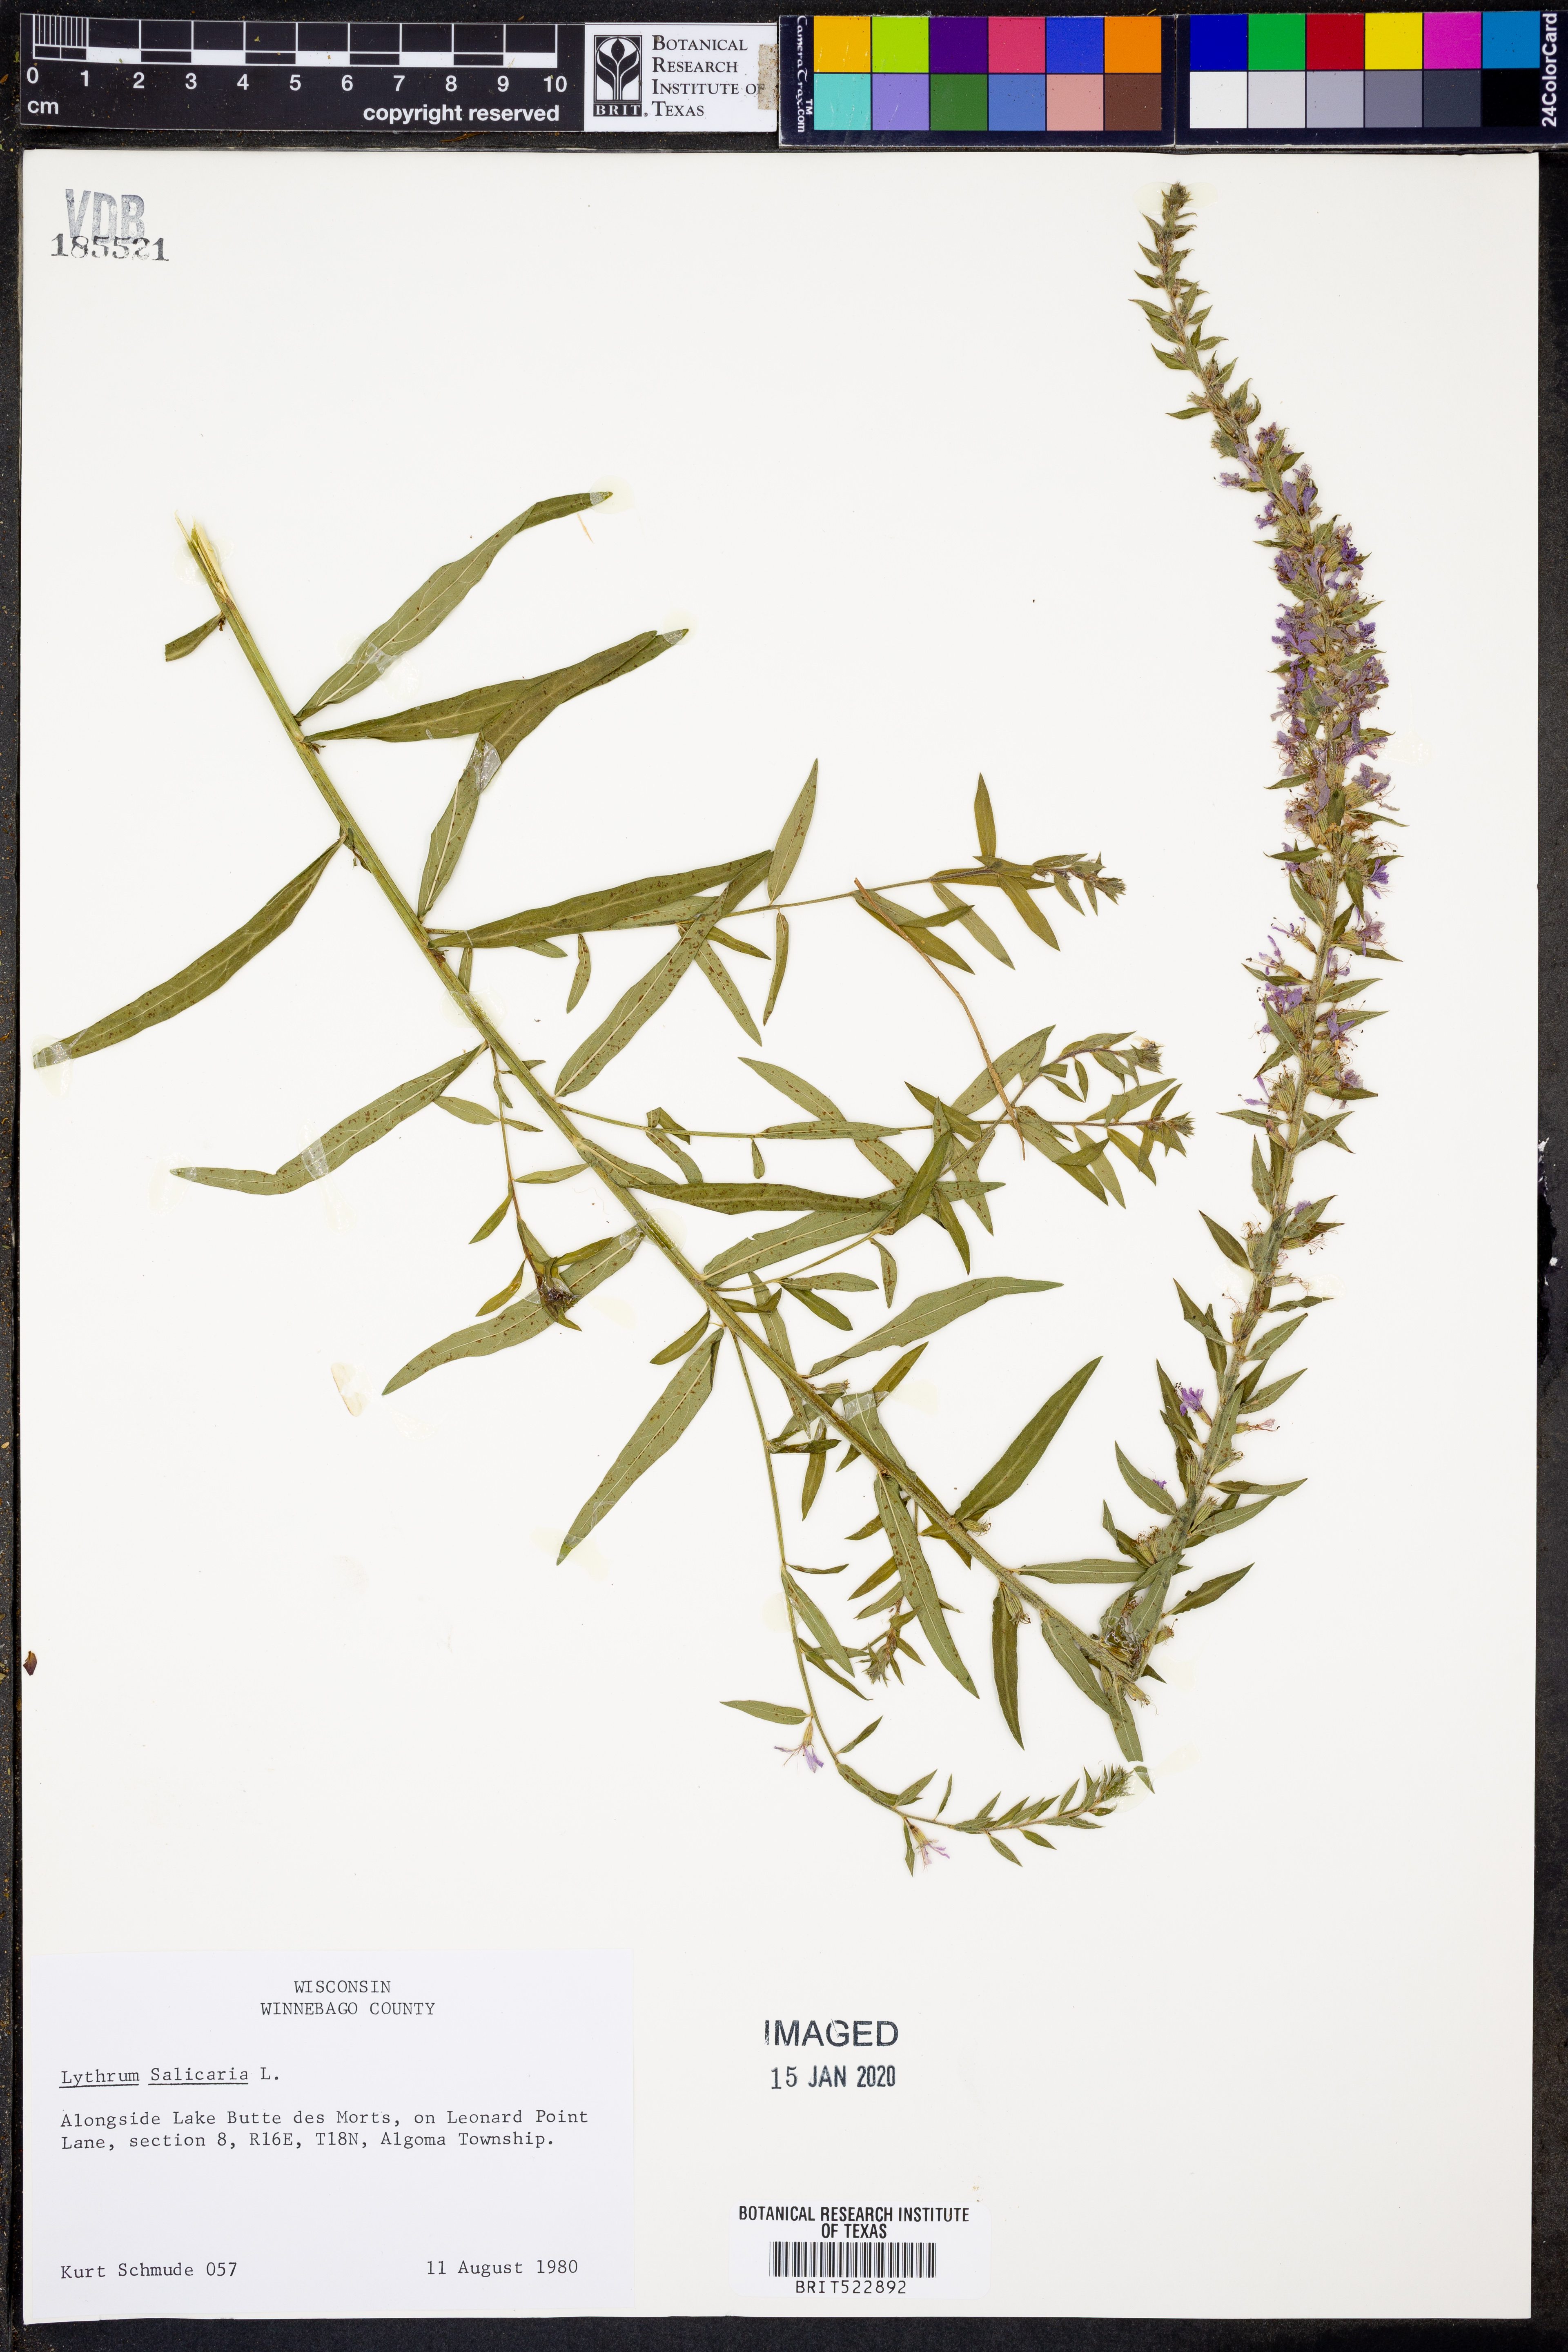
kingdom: Plantae
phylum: Tracheophyta
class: Magnoliopsida
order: Myrtales
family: Lythraceae
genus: Lythrum
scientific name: Lythrum salicaria
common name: Purple loosestrife
